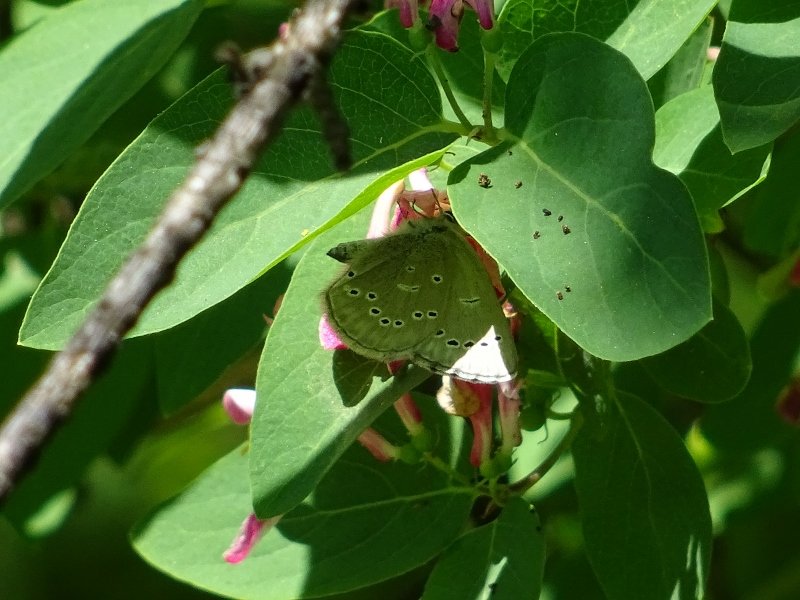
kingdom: Animalia
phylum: Arthropoda
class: Insecta
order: Lepidoptera
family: Lycaenidae
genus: Glaucopsyche
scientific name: Glaucopsyche lygdamus
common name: Silvery Blue
